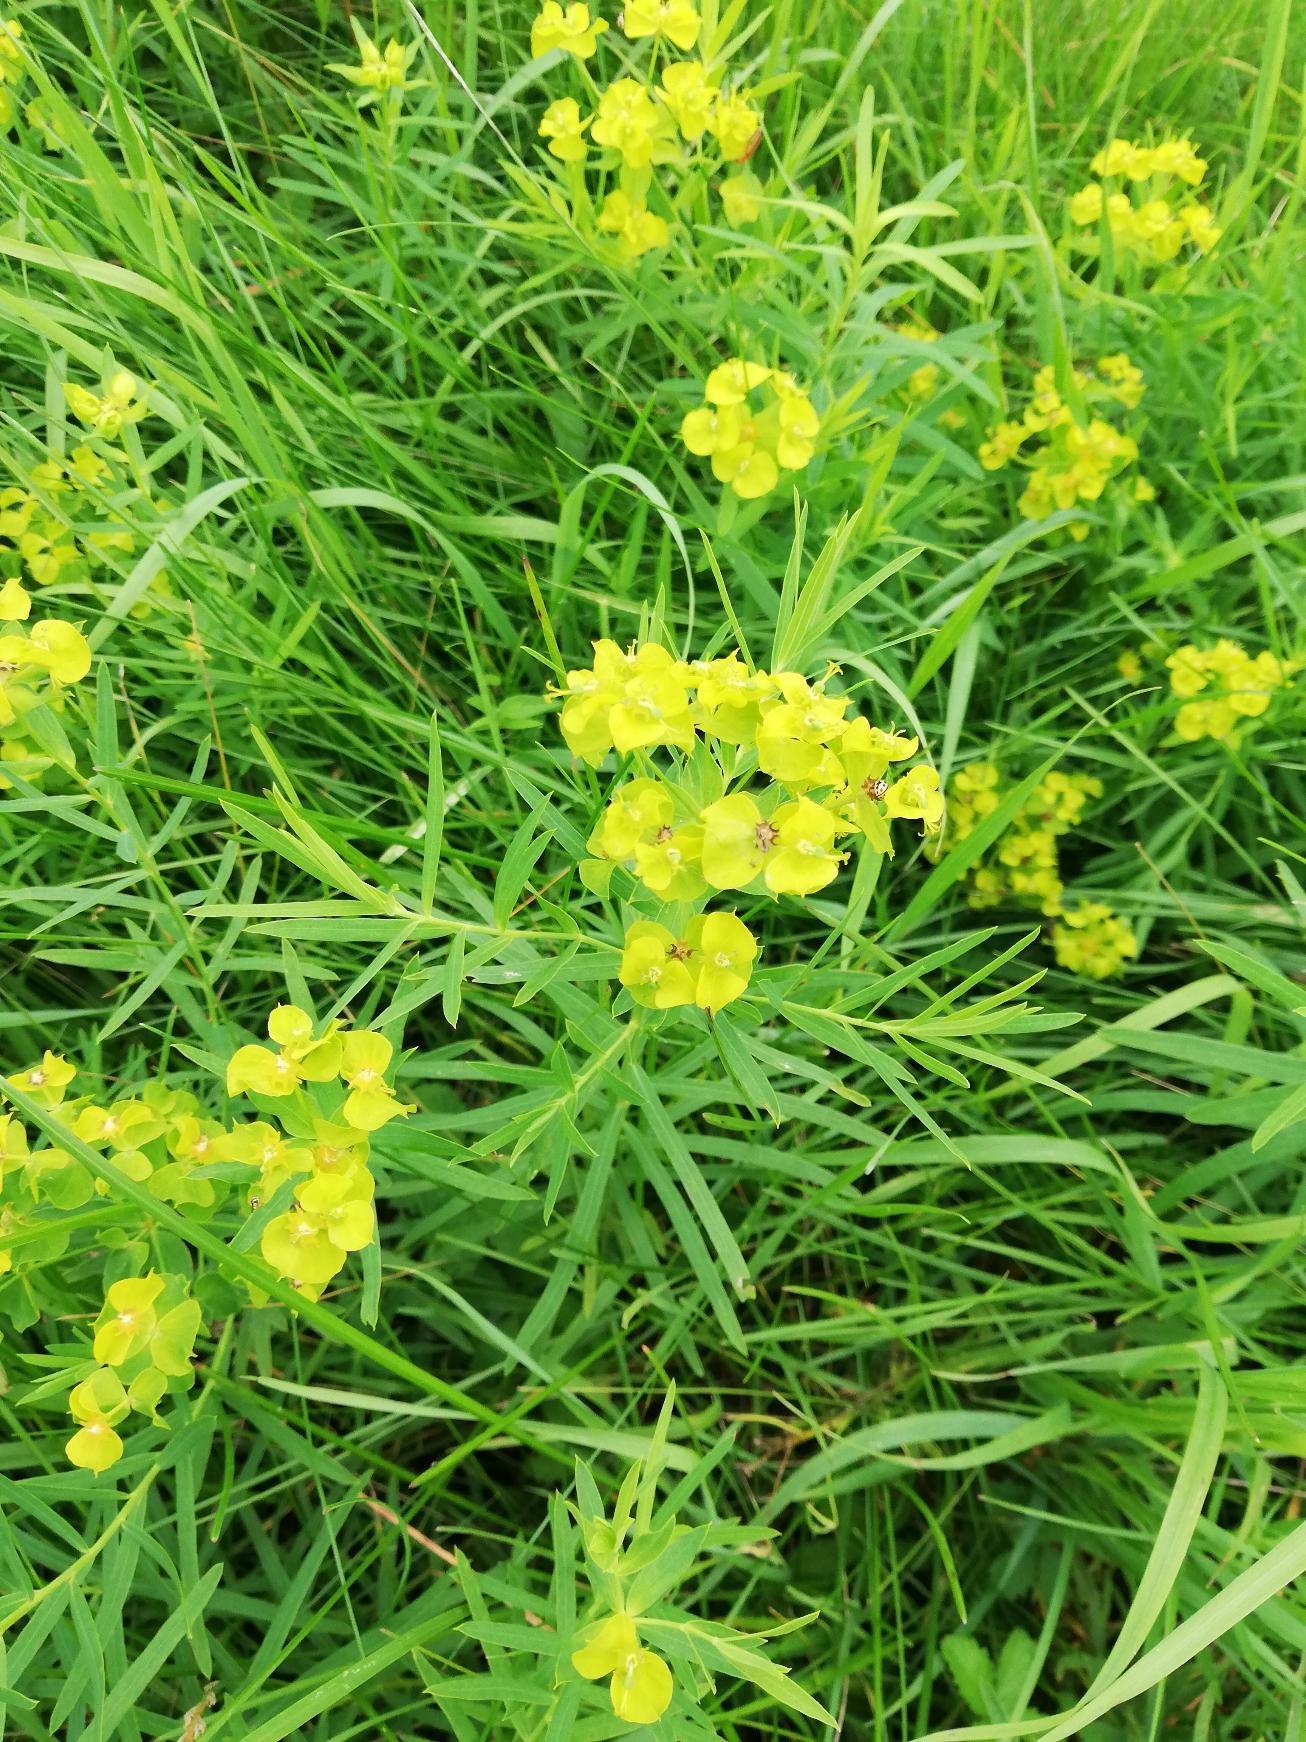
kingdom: Plantae
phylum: Tracheophyta
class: Magnoliopsida
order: Malpighiales
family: Euphorbiaceae
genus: Euphorbia
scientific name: Euphorbia tommasiniana
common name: Ris-vortemælk
